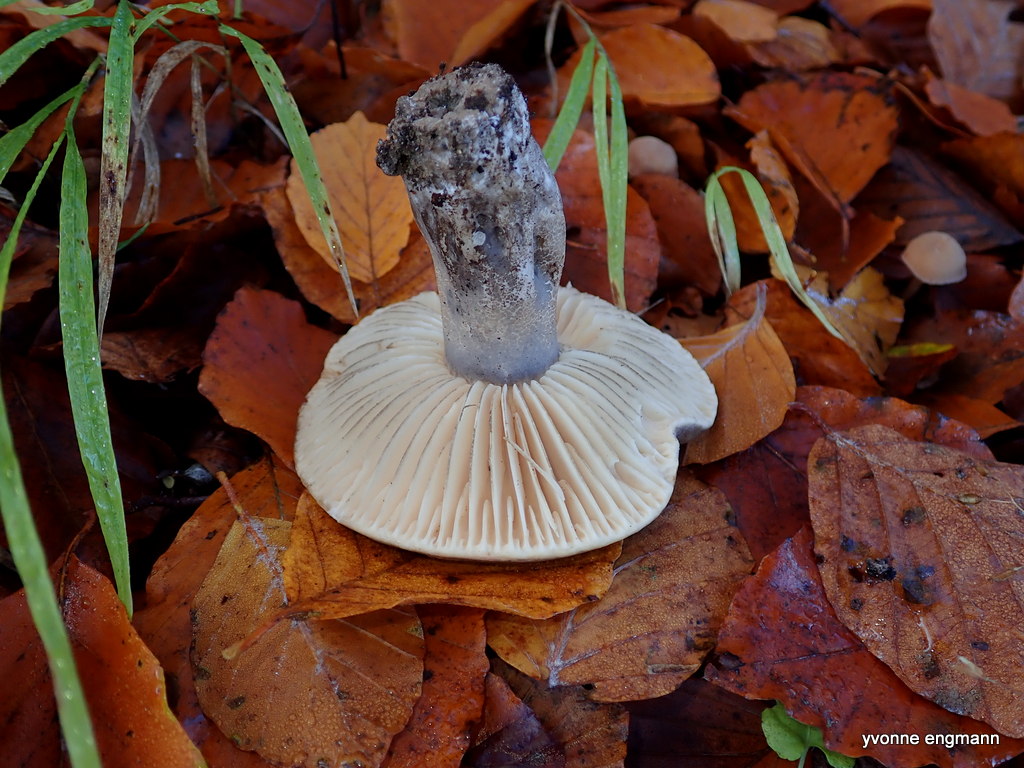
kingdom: Fungi
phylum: Basidiomycota
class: Agaricomycetes
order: Russulales
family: Russulaceae
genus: Russula
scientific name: Russula adusta
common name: sværtende skørhat
